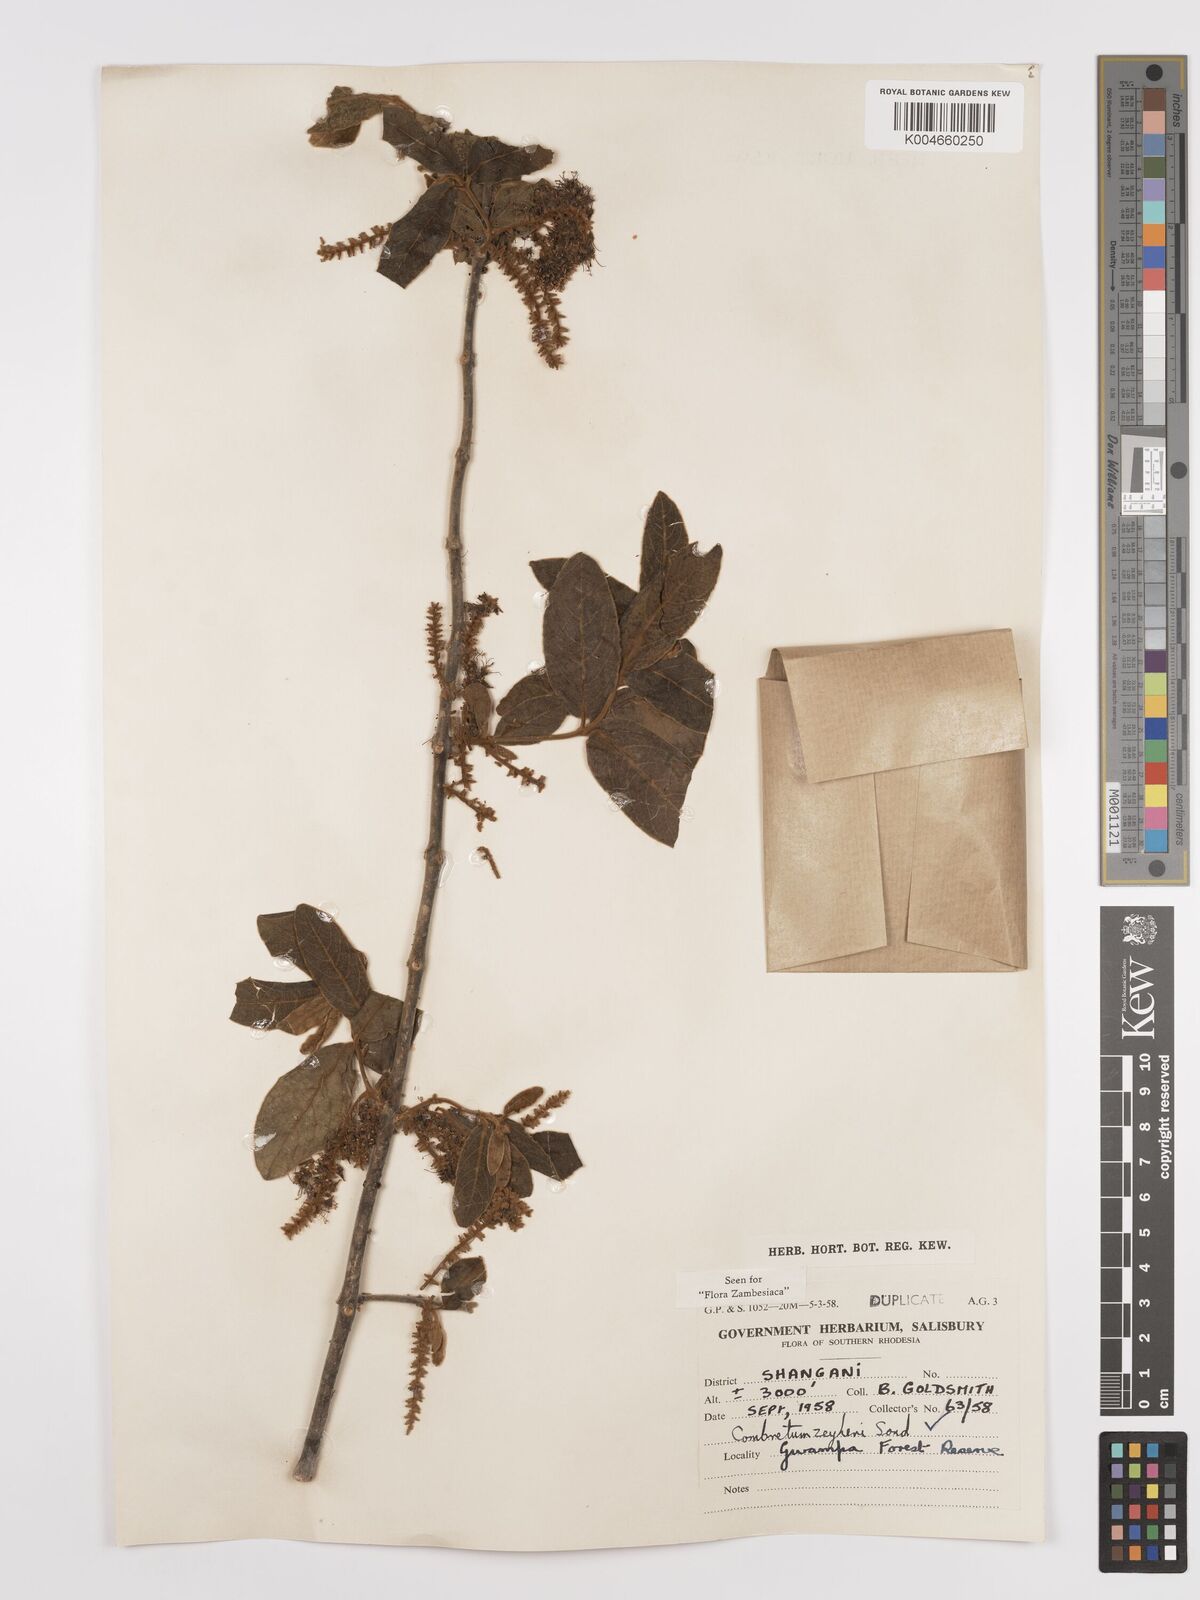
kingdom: Plantae
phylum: Tracheophyta
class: Magnoliopsida
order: Myrtales
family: Combretaceae
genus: Combretum
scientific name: Combretum zeyheri
